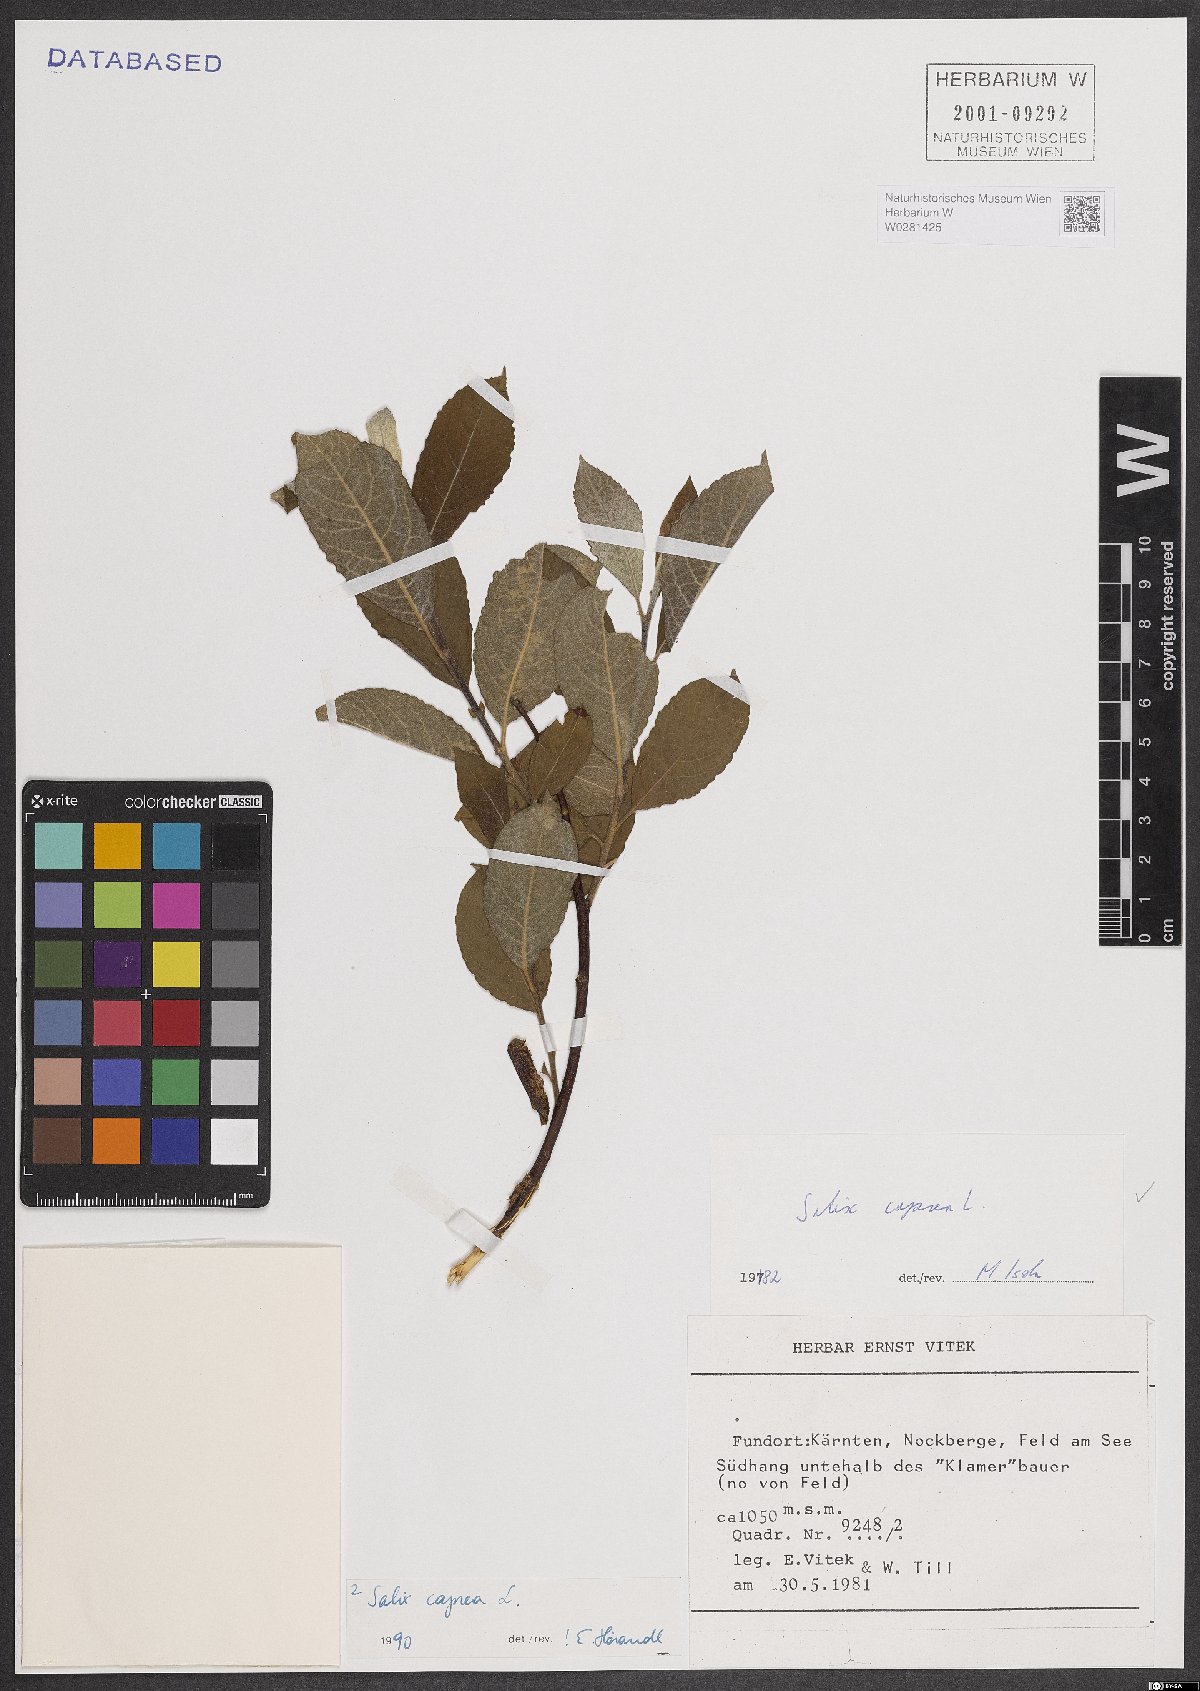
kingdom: Plantae
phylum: Tracheophyta
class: Magnoliopsida
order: Malpighiales
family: Salicaceae
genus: Salix
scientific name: Salix caprea
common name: Goat willow
